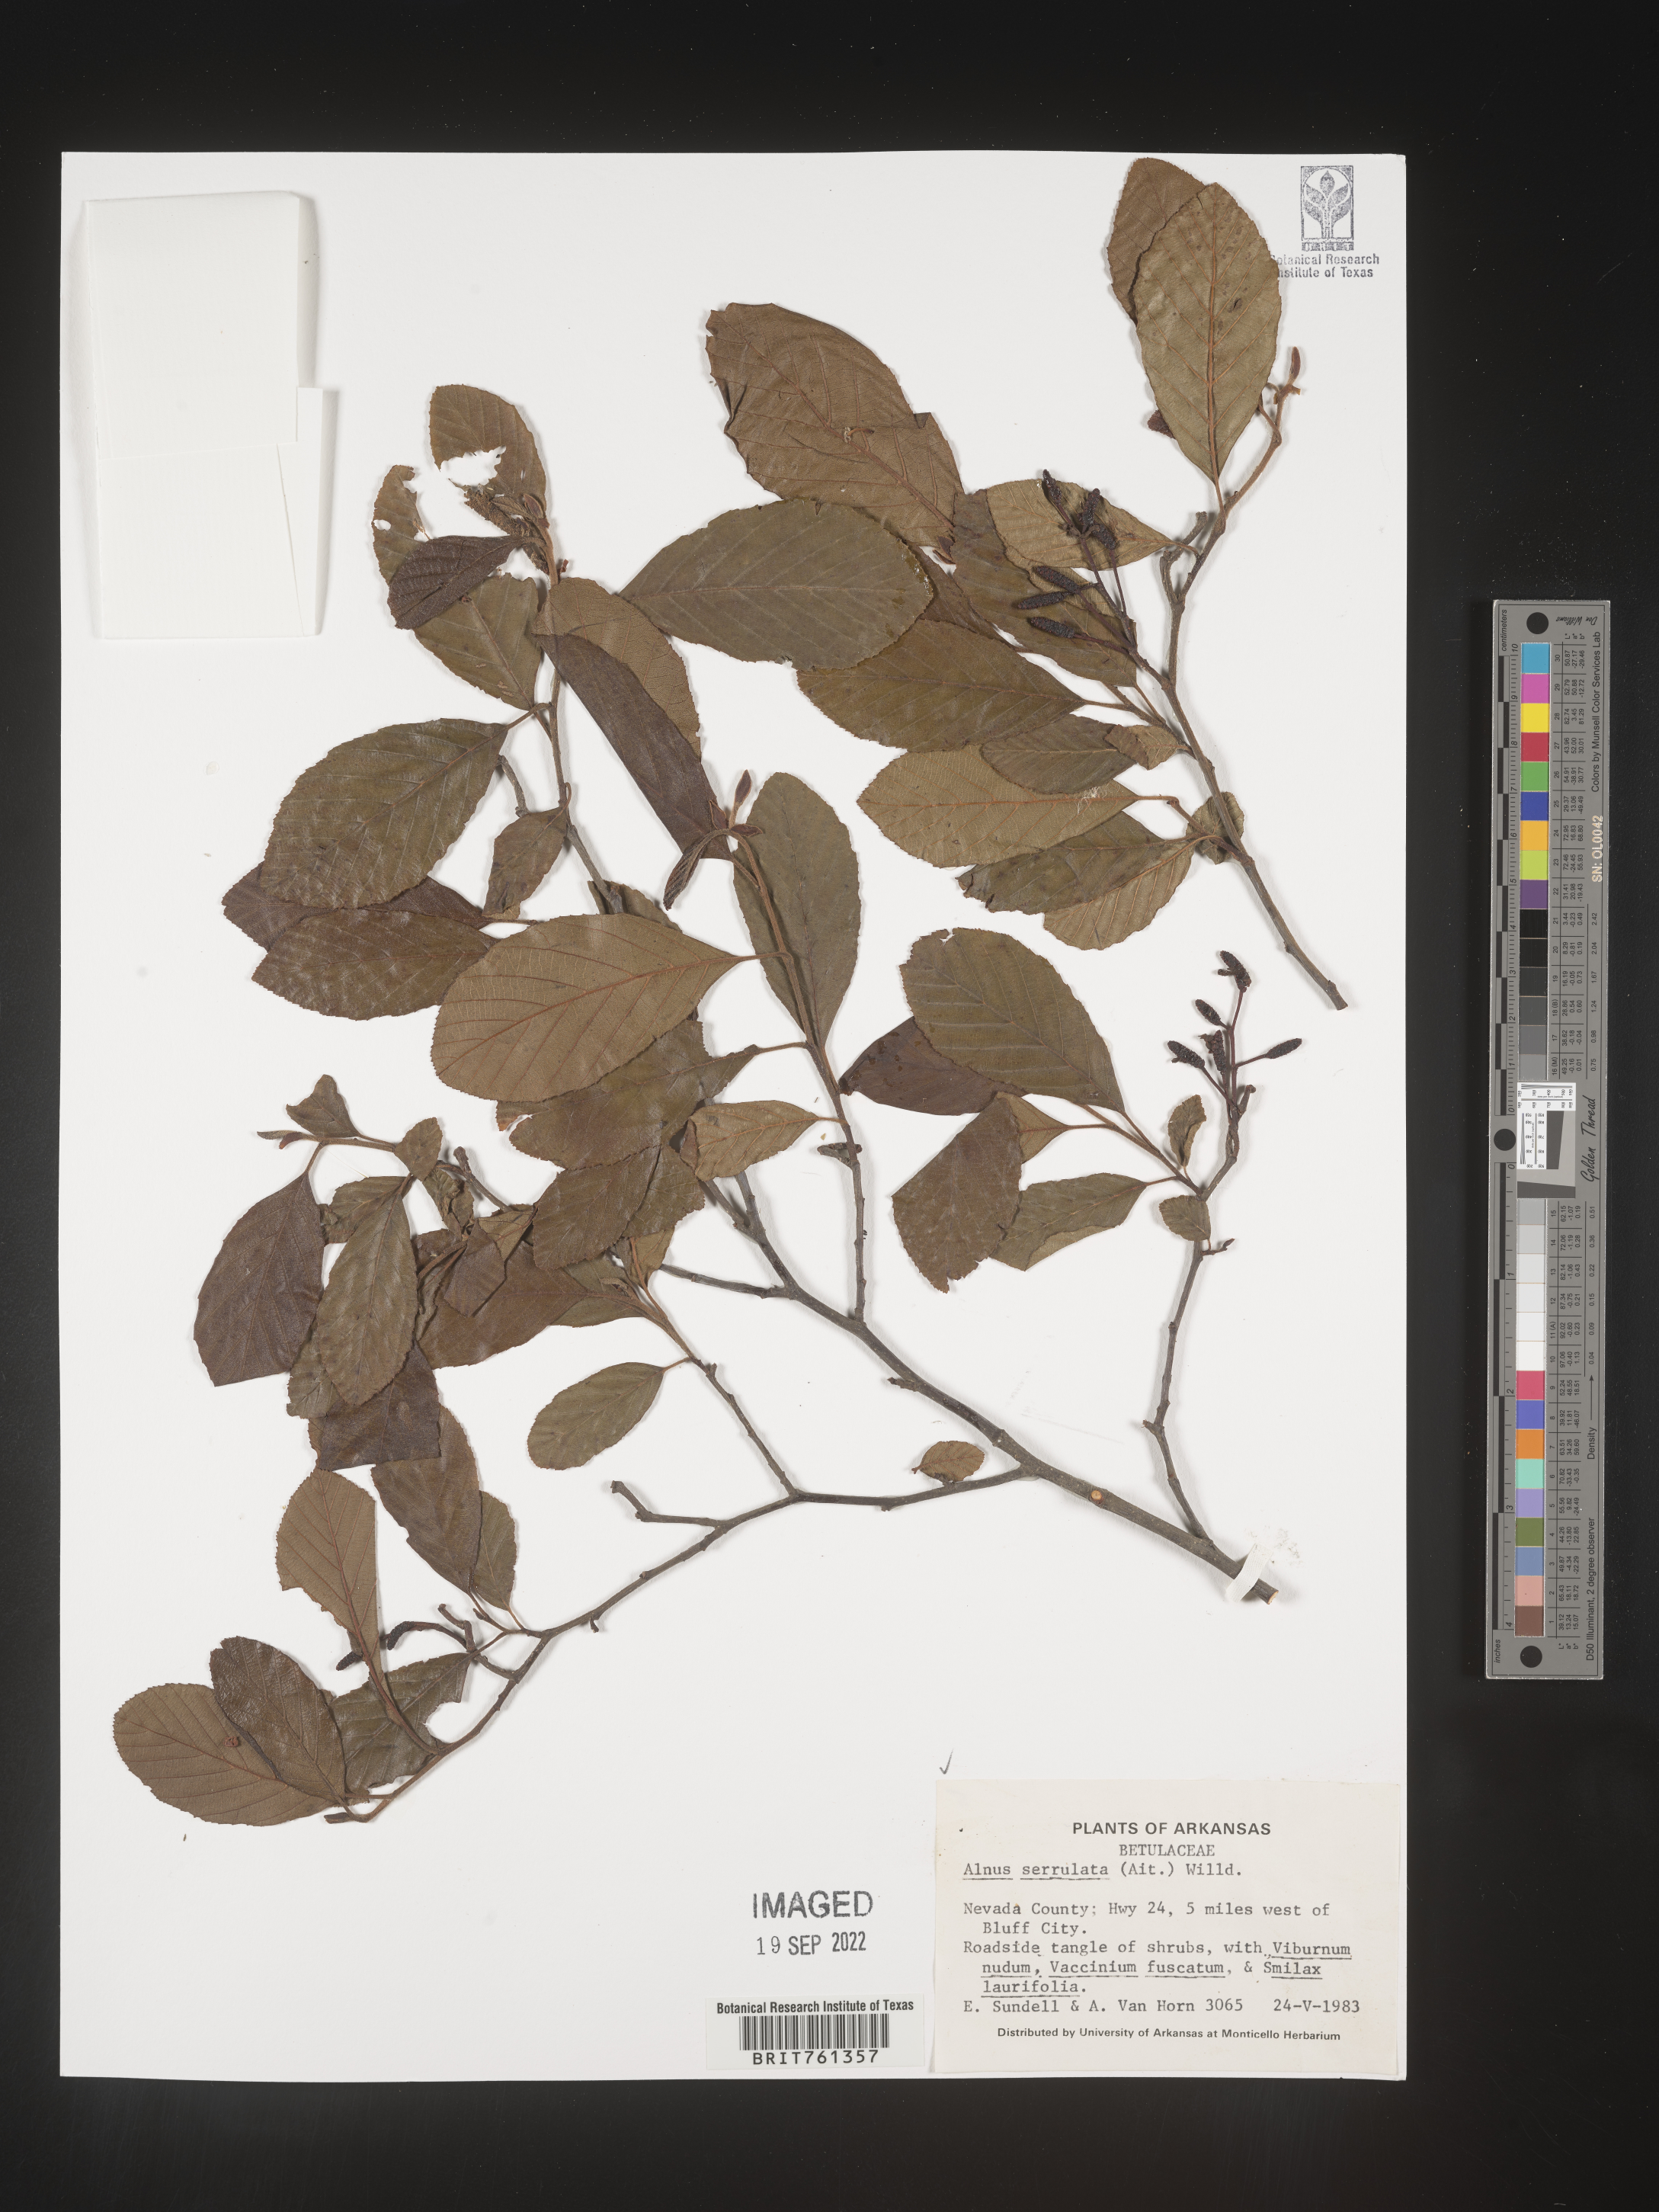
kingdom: Plantae
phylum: Tracheophyta
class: Magnoliopsida
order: Fagales
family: Betulaceae
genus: Alnus
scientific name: Alnus serrulata
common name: Hazel alder
